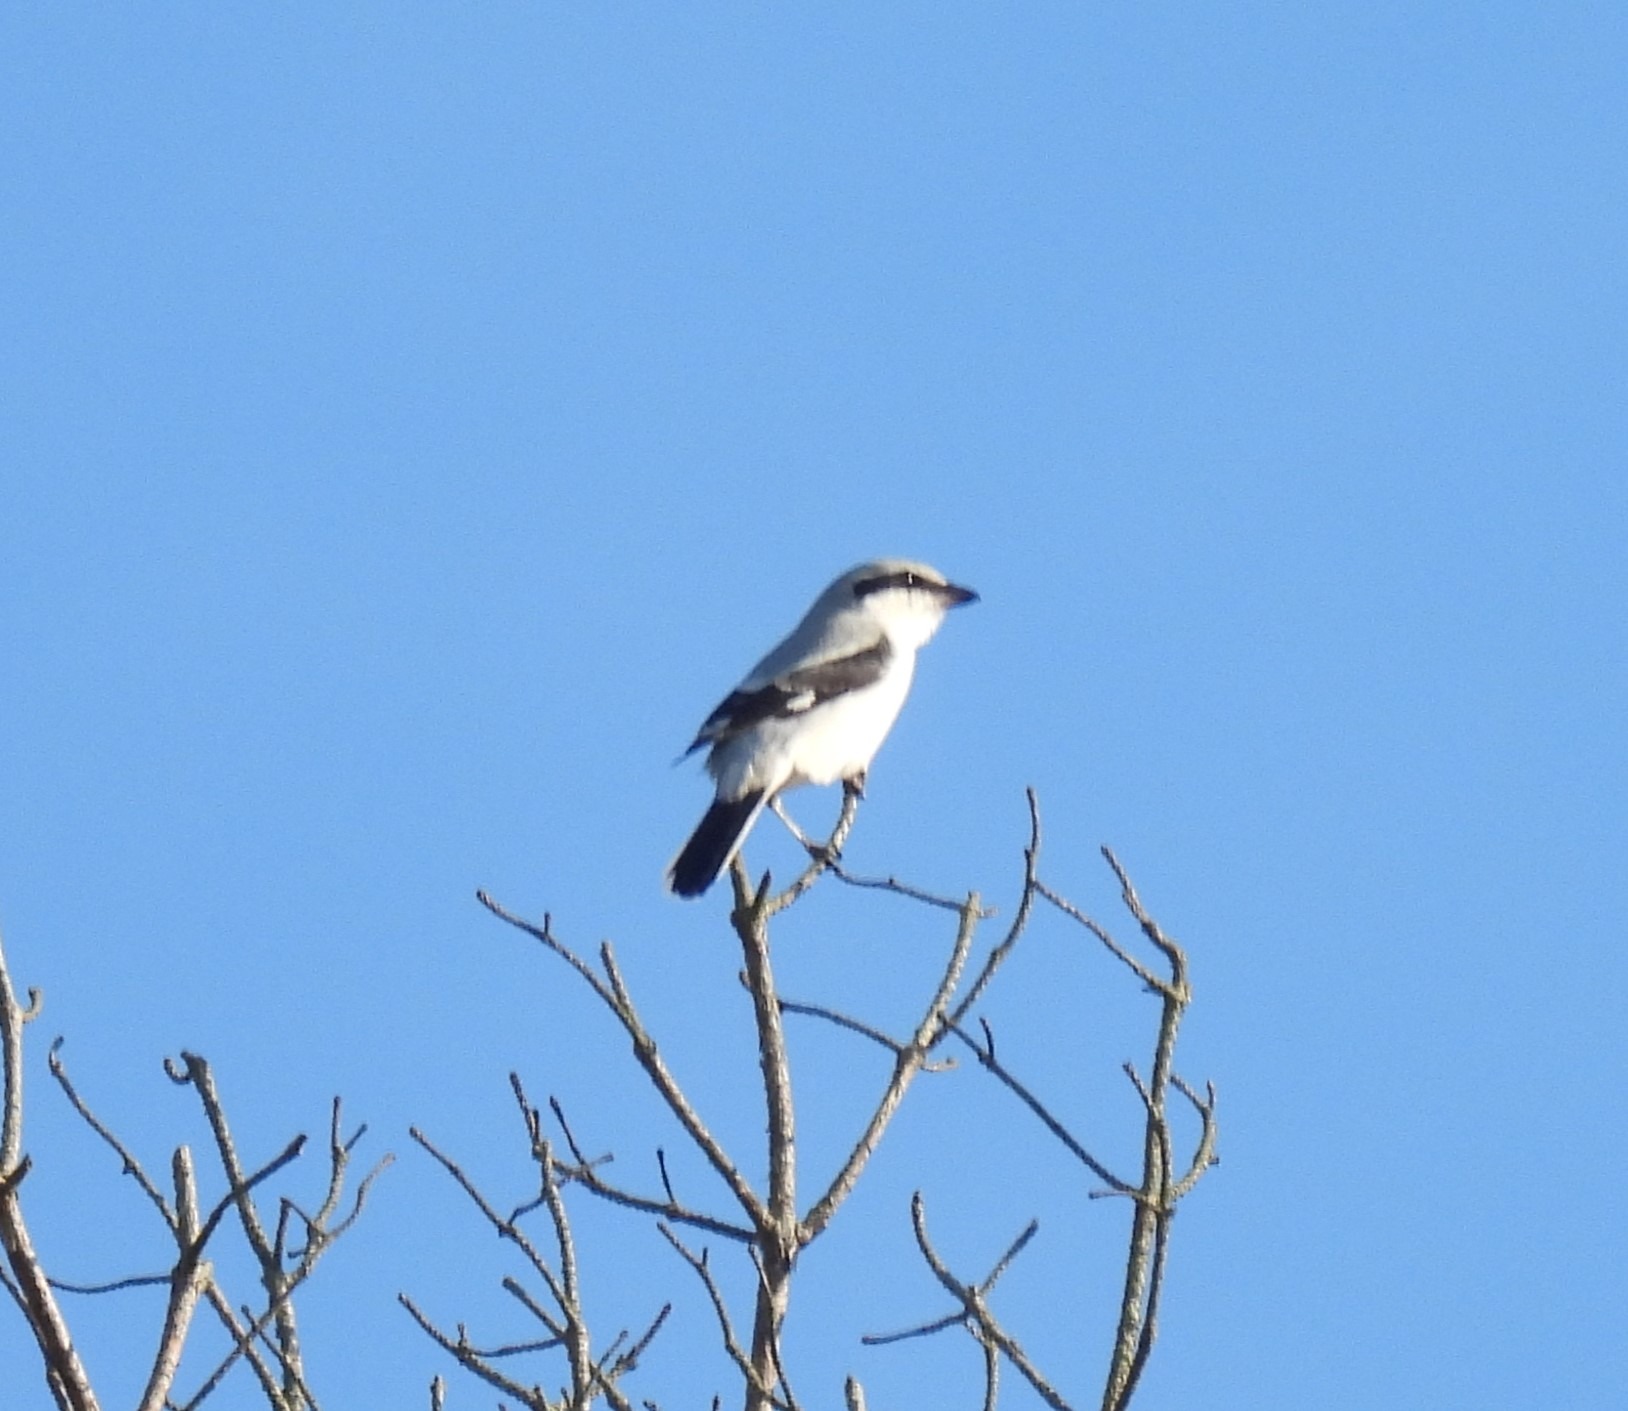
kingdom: Animalia
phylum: Chordata
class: Aves
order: Passeriformes
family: Laniidae
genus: Lanius
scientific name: Lanius excubitor
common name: Stor tornskade
